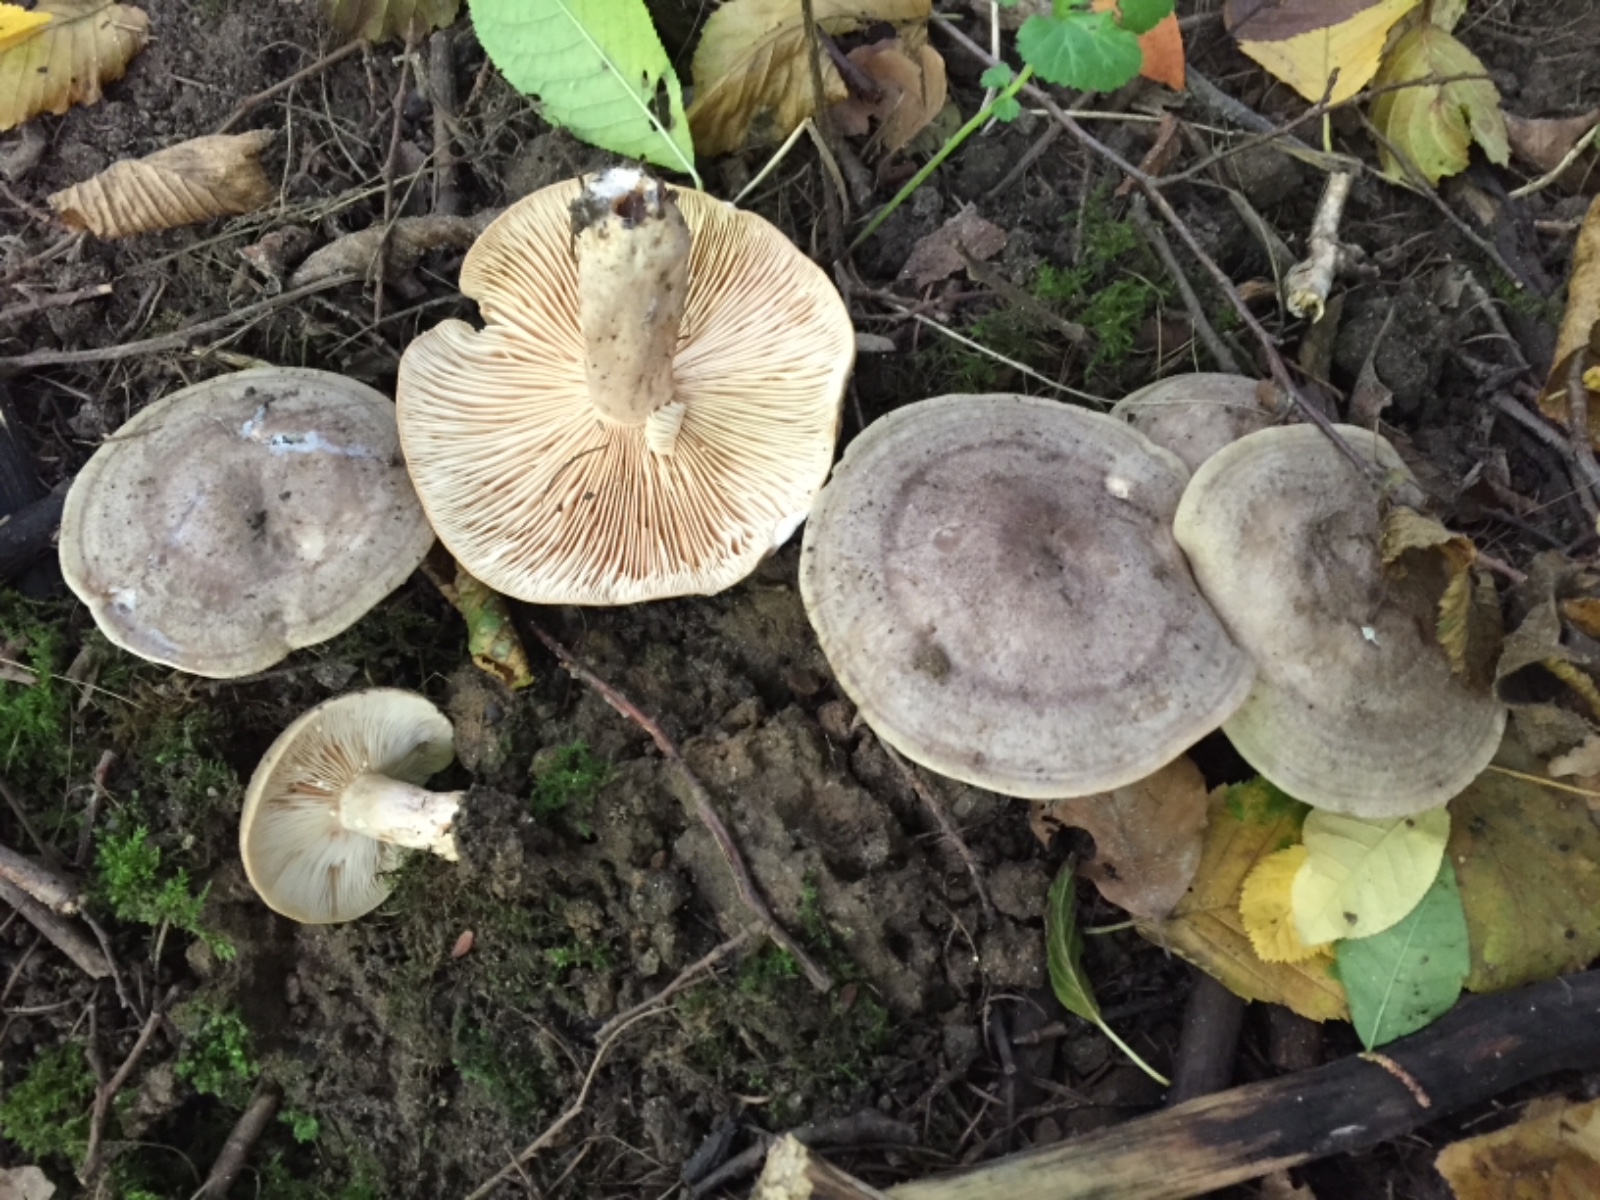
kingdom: Fungi
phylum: Basidiomycota
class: Agaricomycetes
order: Russulales
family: Russulaceae
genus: Lactarius
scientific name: Lactarius circellatus
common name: avnbøg-mælkehat
